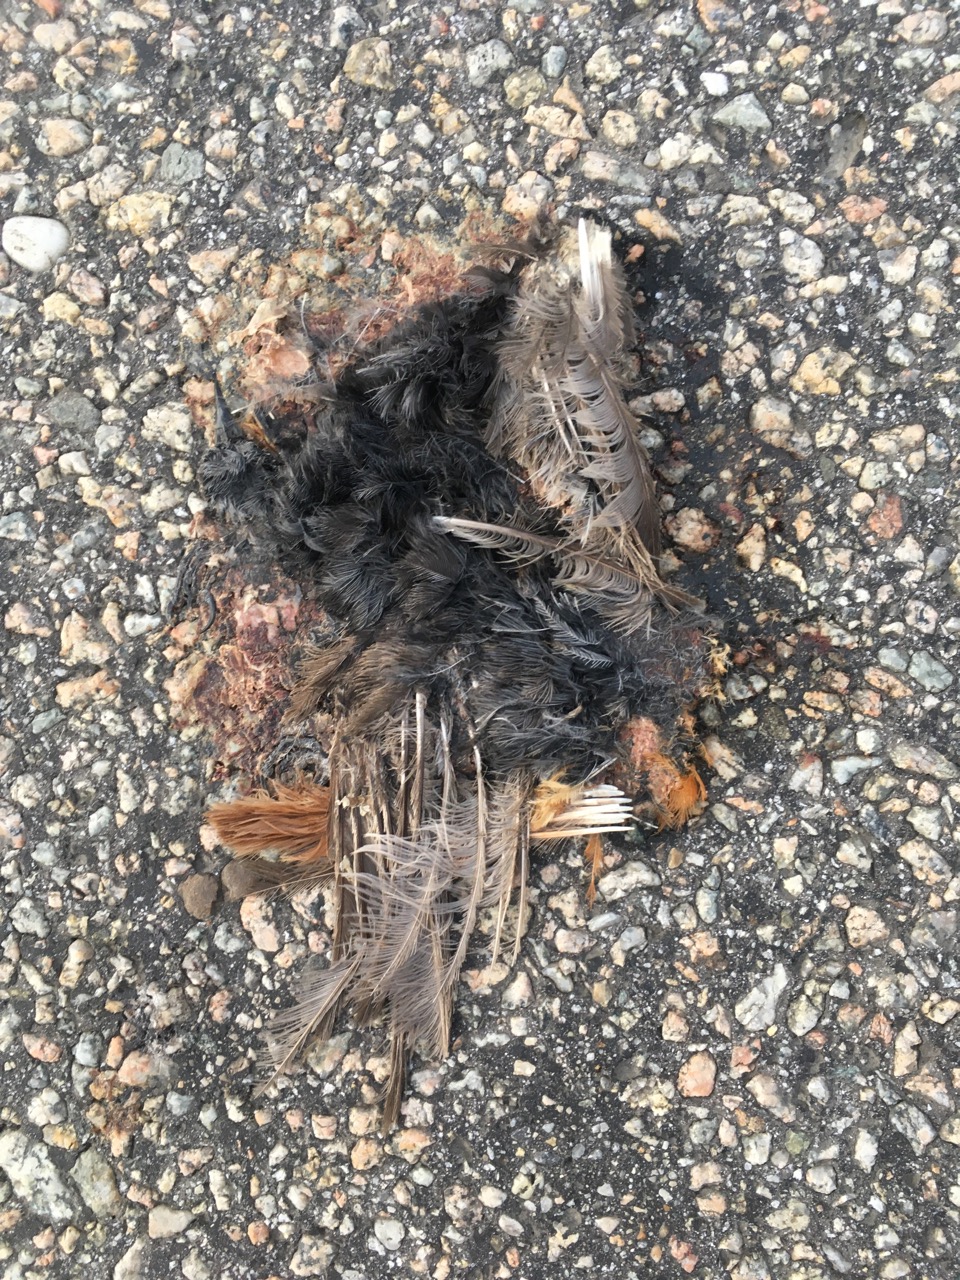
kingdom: Animalia
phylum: Chordata
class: Aves
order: Passeriformes
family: Muscicapidae
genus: Phoenicurus
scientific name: Phoenicurus
